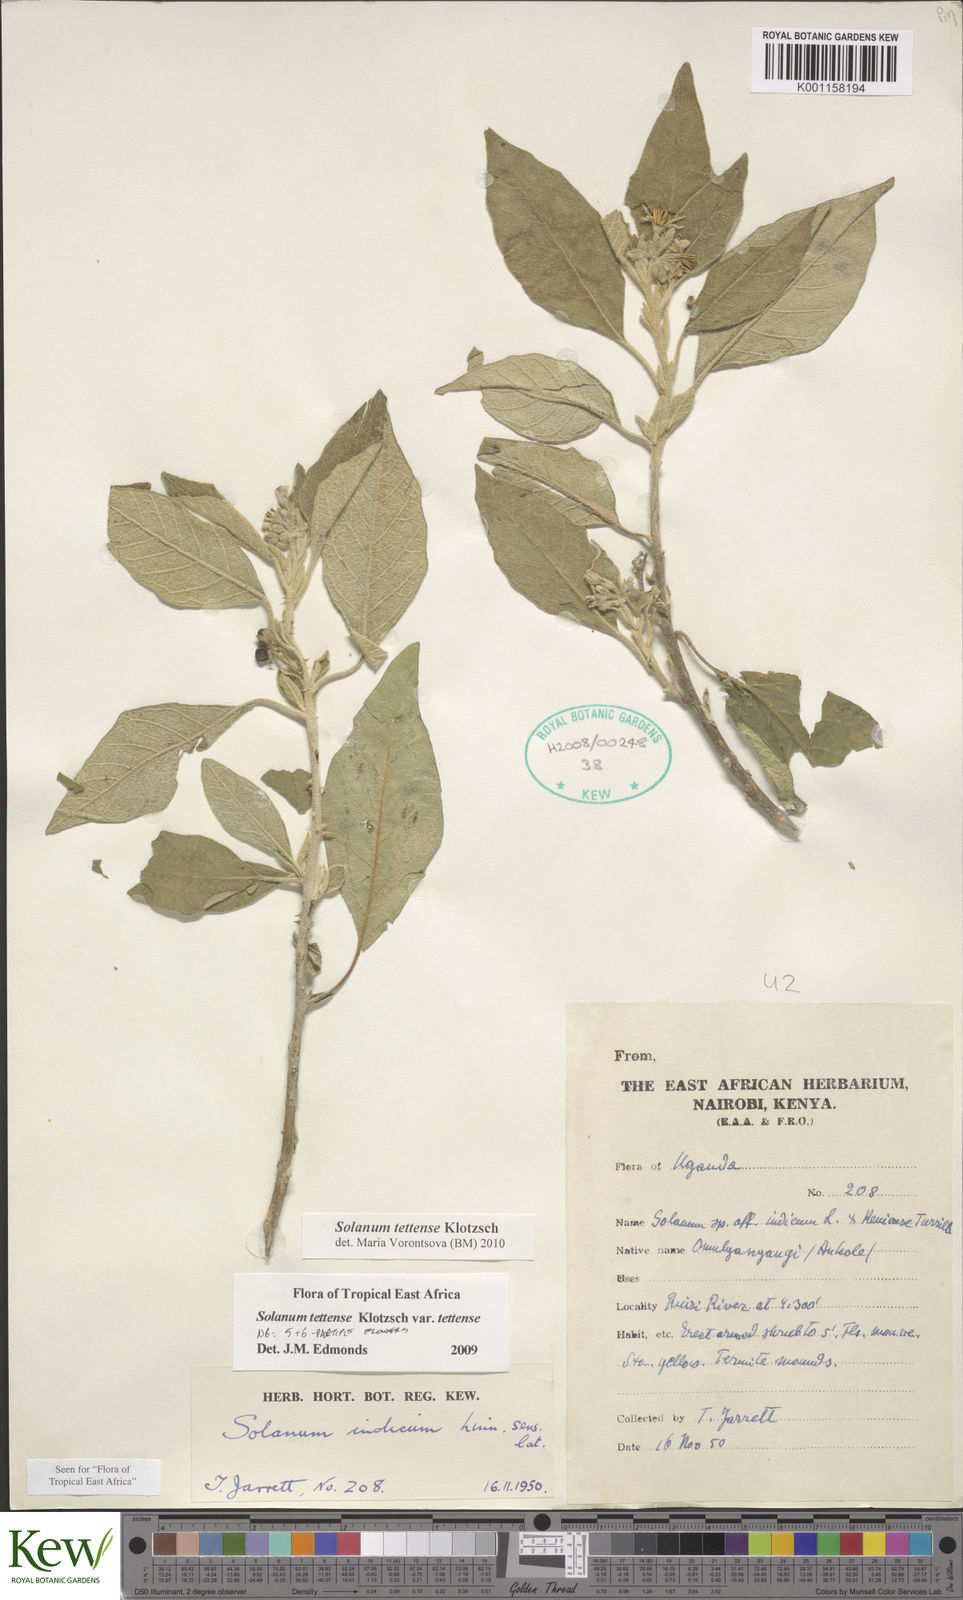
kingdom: Plantae
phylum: Tracheophyta
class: Magnoliopsida
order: Solanales
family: Solanaceae
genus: Solanum
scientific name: Solanum tettense
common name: Mozambique bitter apple
